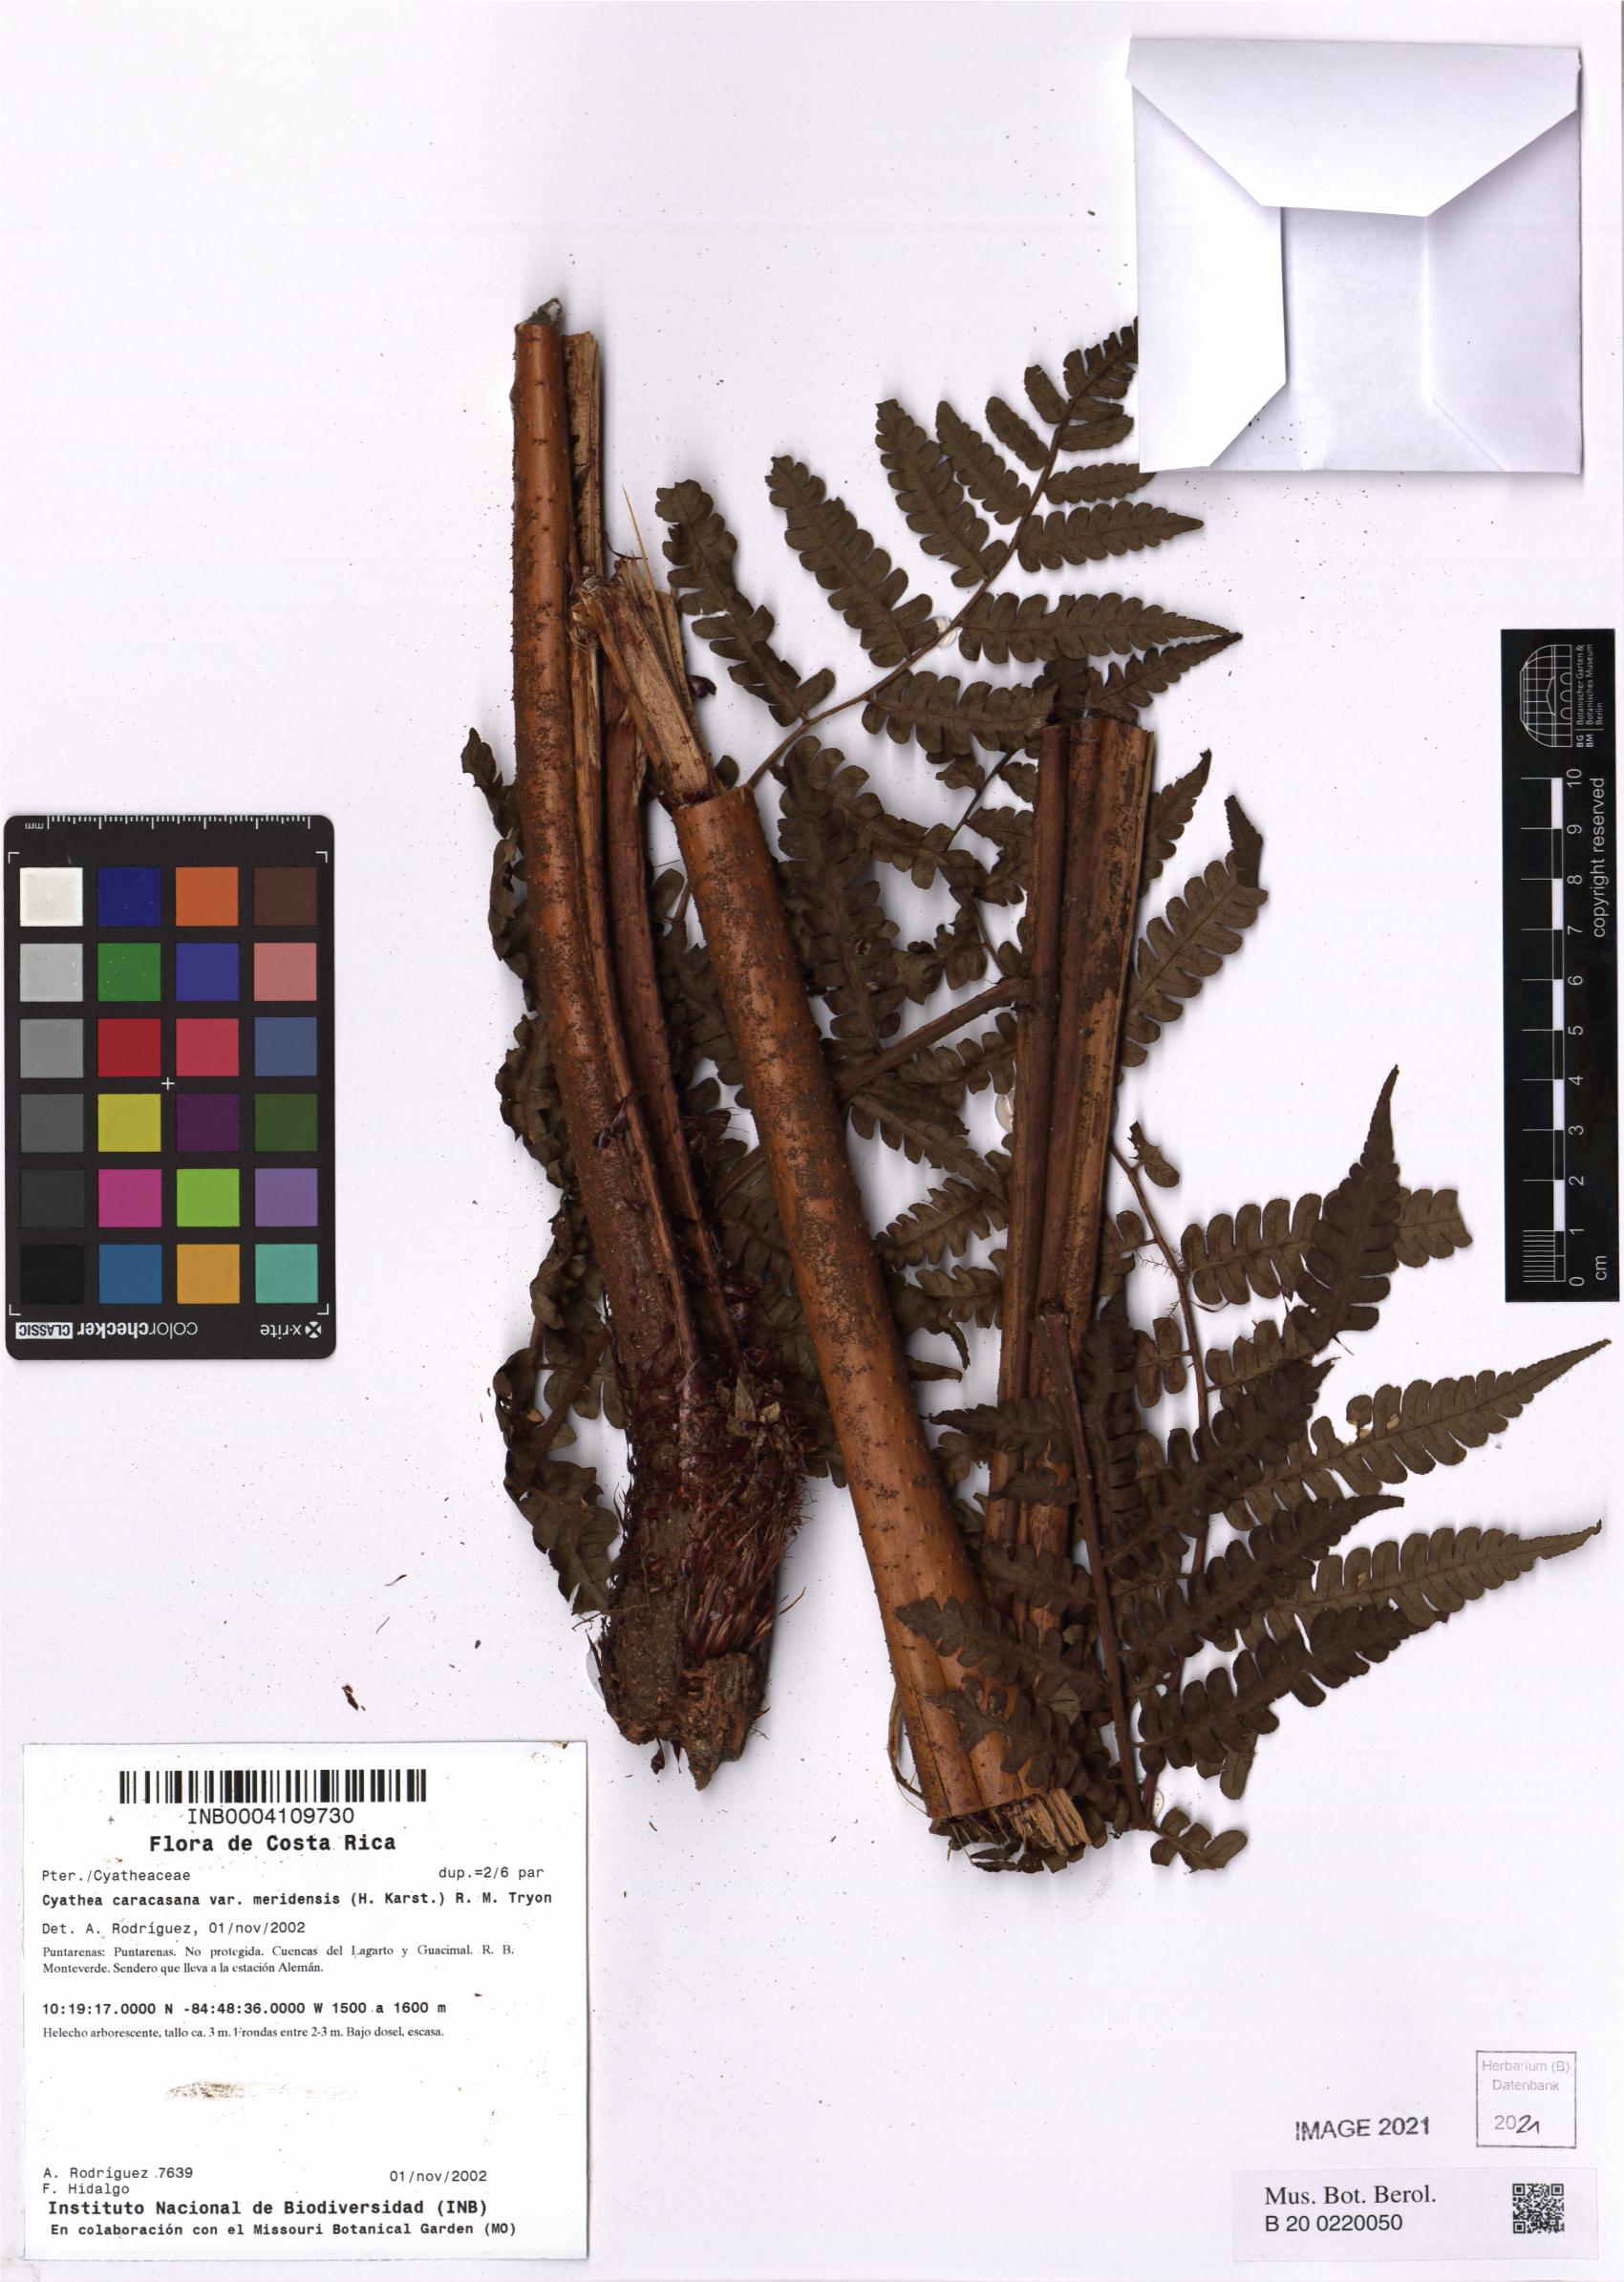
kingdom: Plantae
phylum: Tracheophyta
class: Polypodiopsida
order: Cyatheales
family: Cyatheaceae
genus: Cyathea
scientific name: Cyathea meridensis
